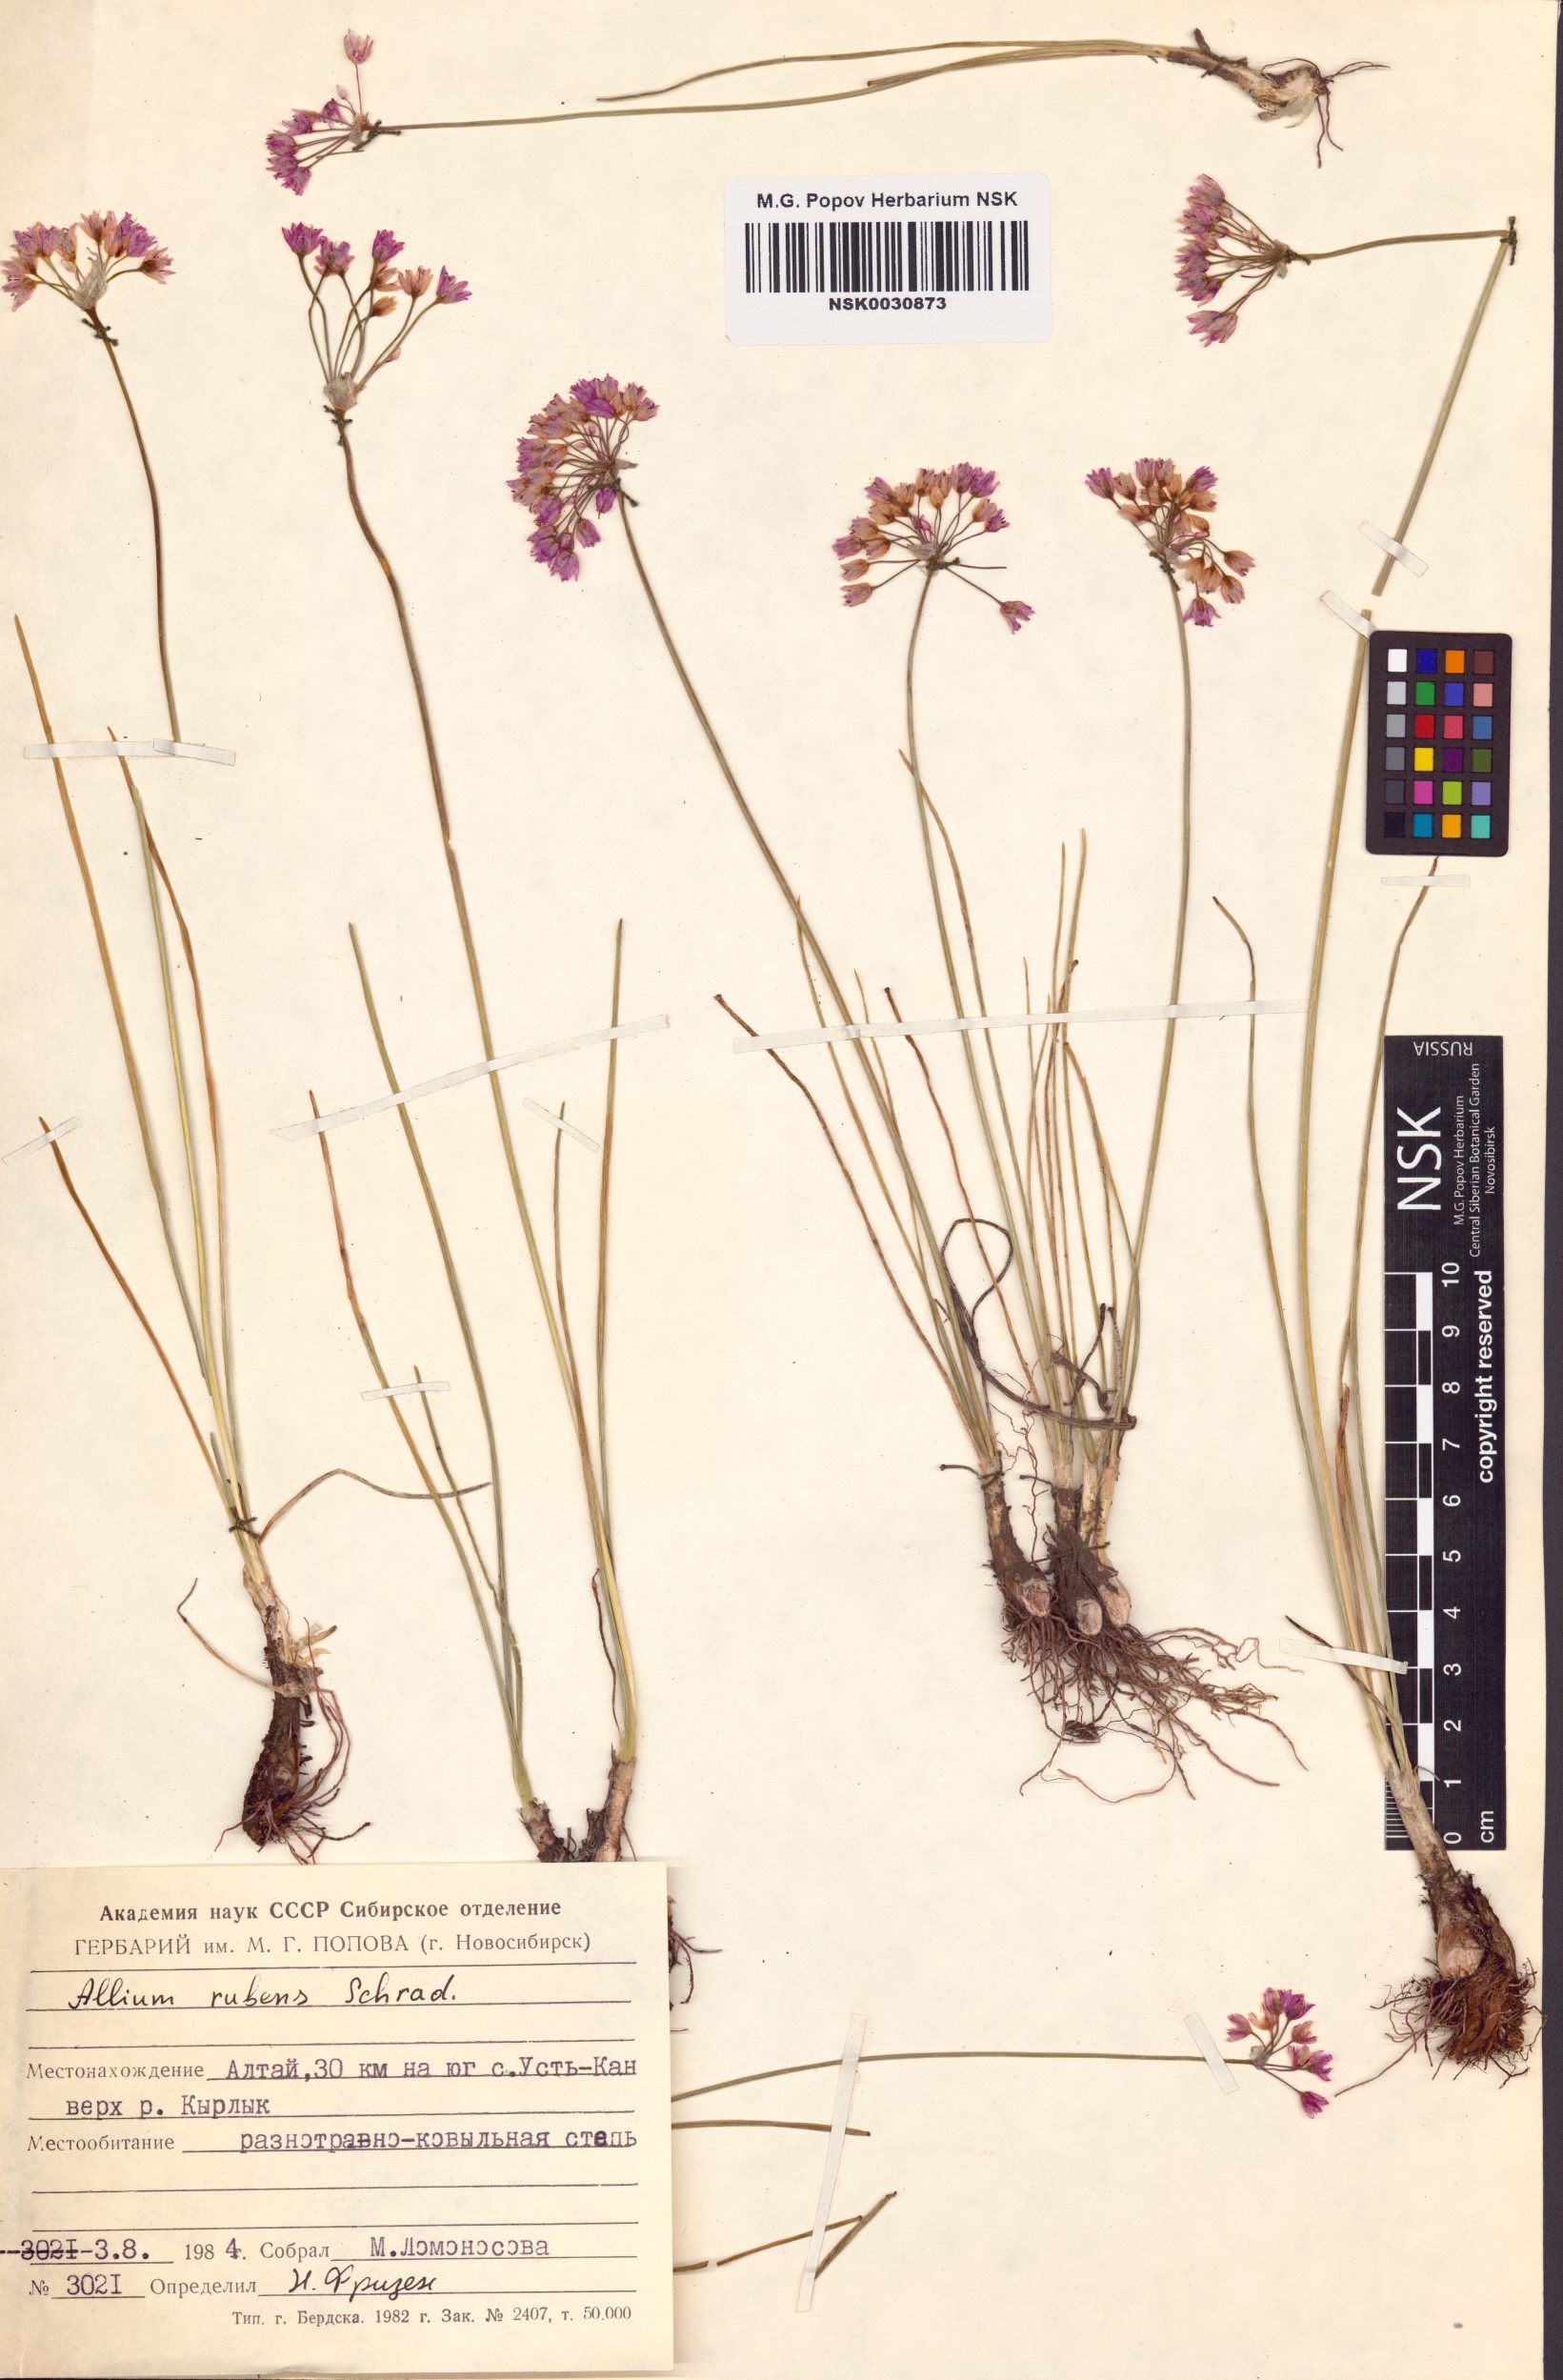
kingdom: Plantae
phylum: Tracheophyta
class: Liliopsida
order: Asparagales
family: Amaryllidaceae
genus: Allium
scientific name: Allium rubens
